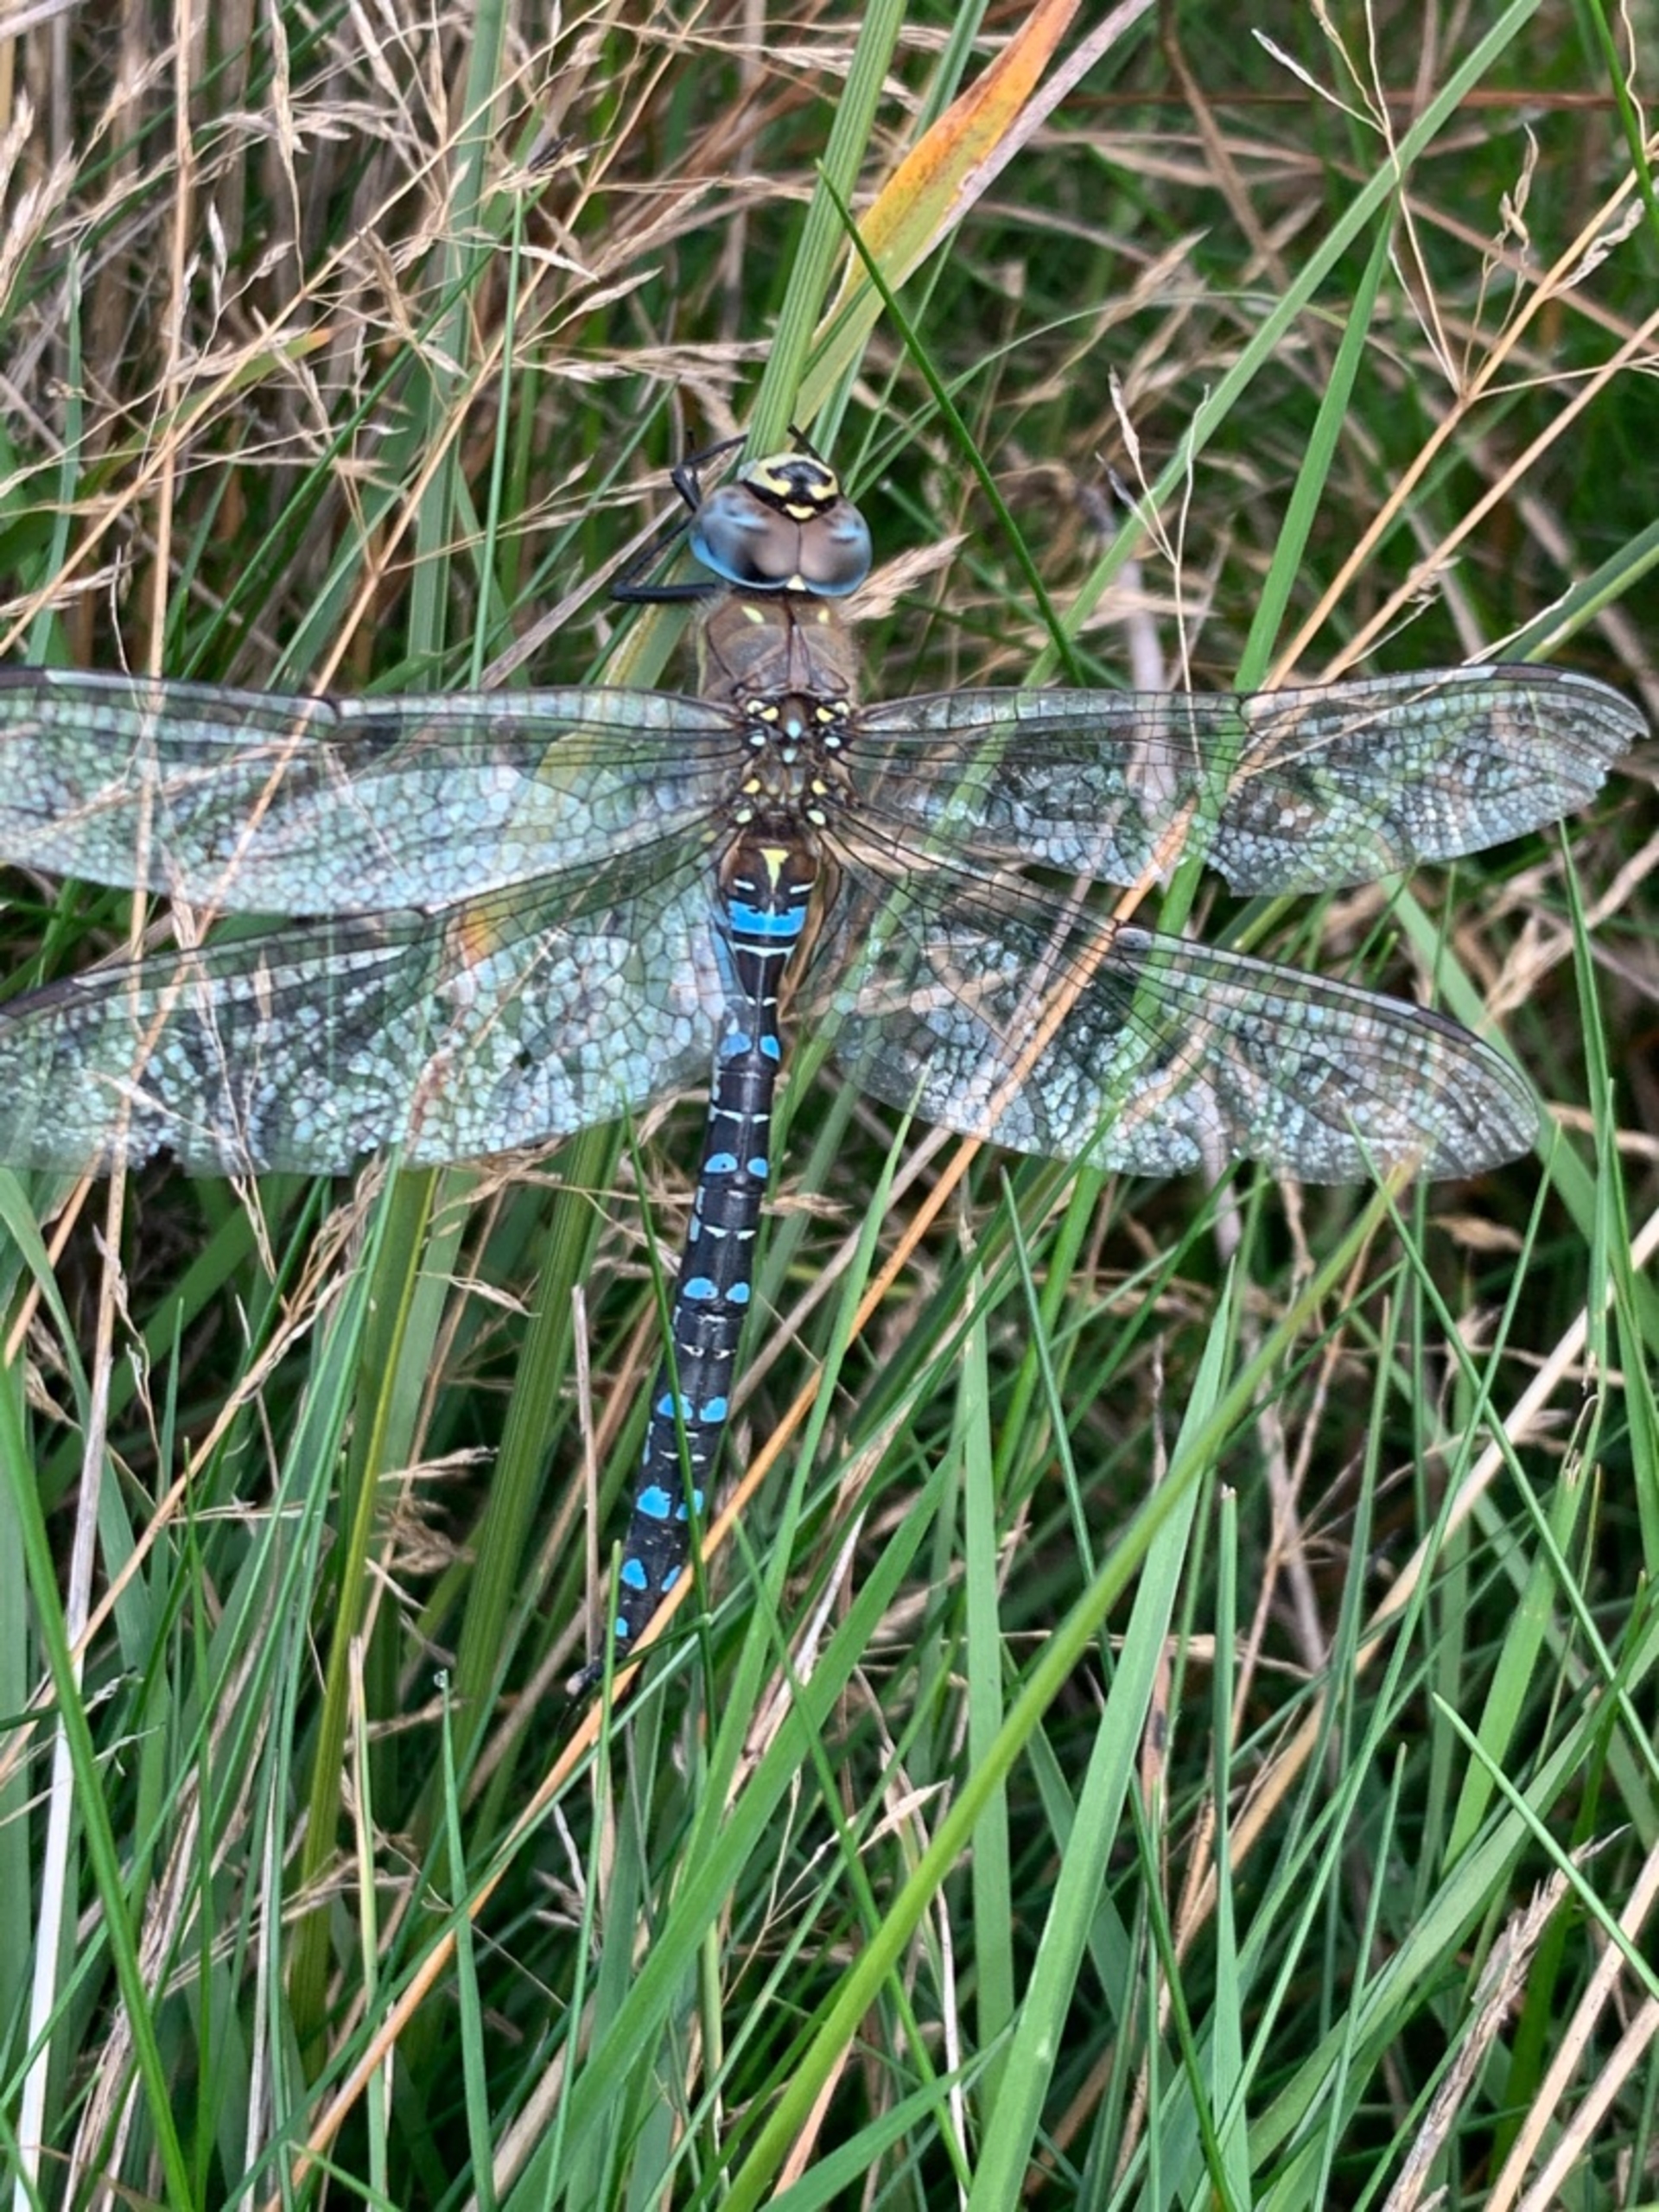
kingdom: Animalia
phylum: Arthropoda
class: Insecta
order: Odonata
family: Aeshnidae
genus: Aeshna
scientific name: Aeshna mixta
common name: Efterårs-mosaikguldsmed
